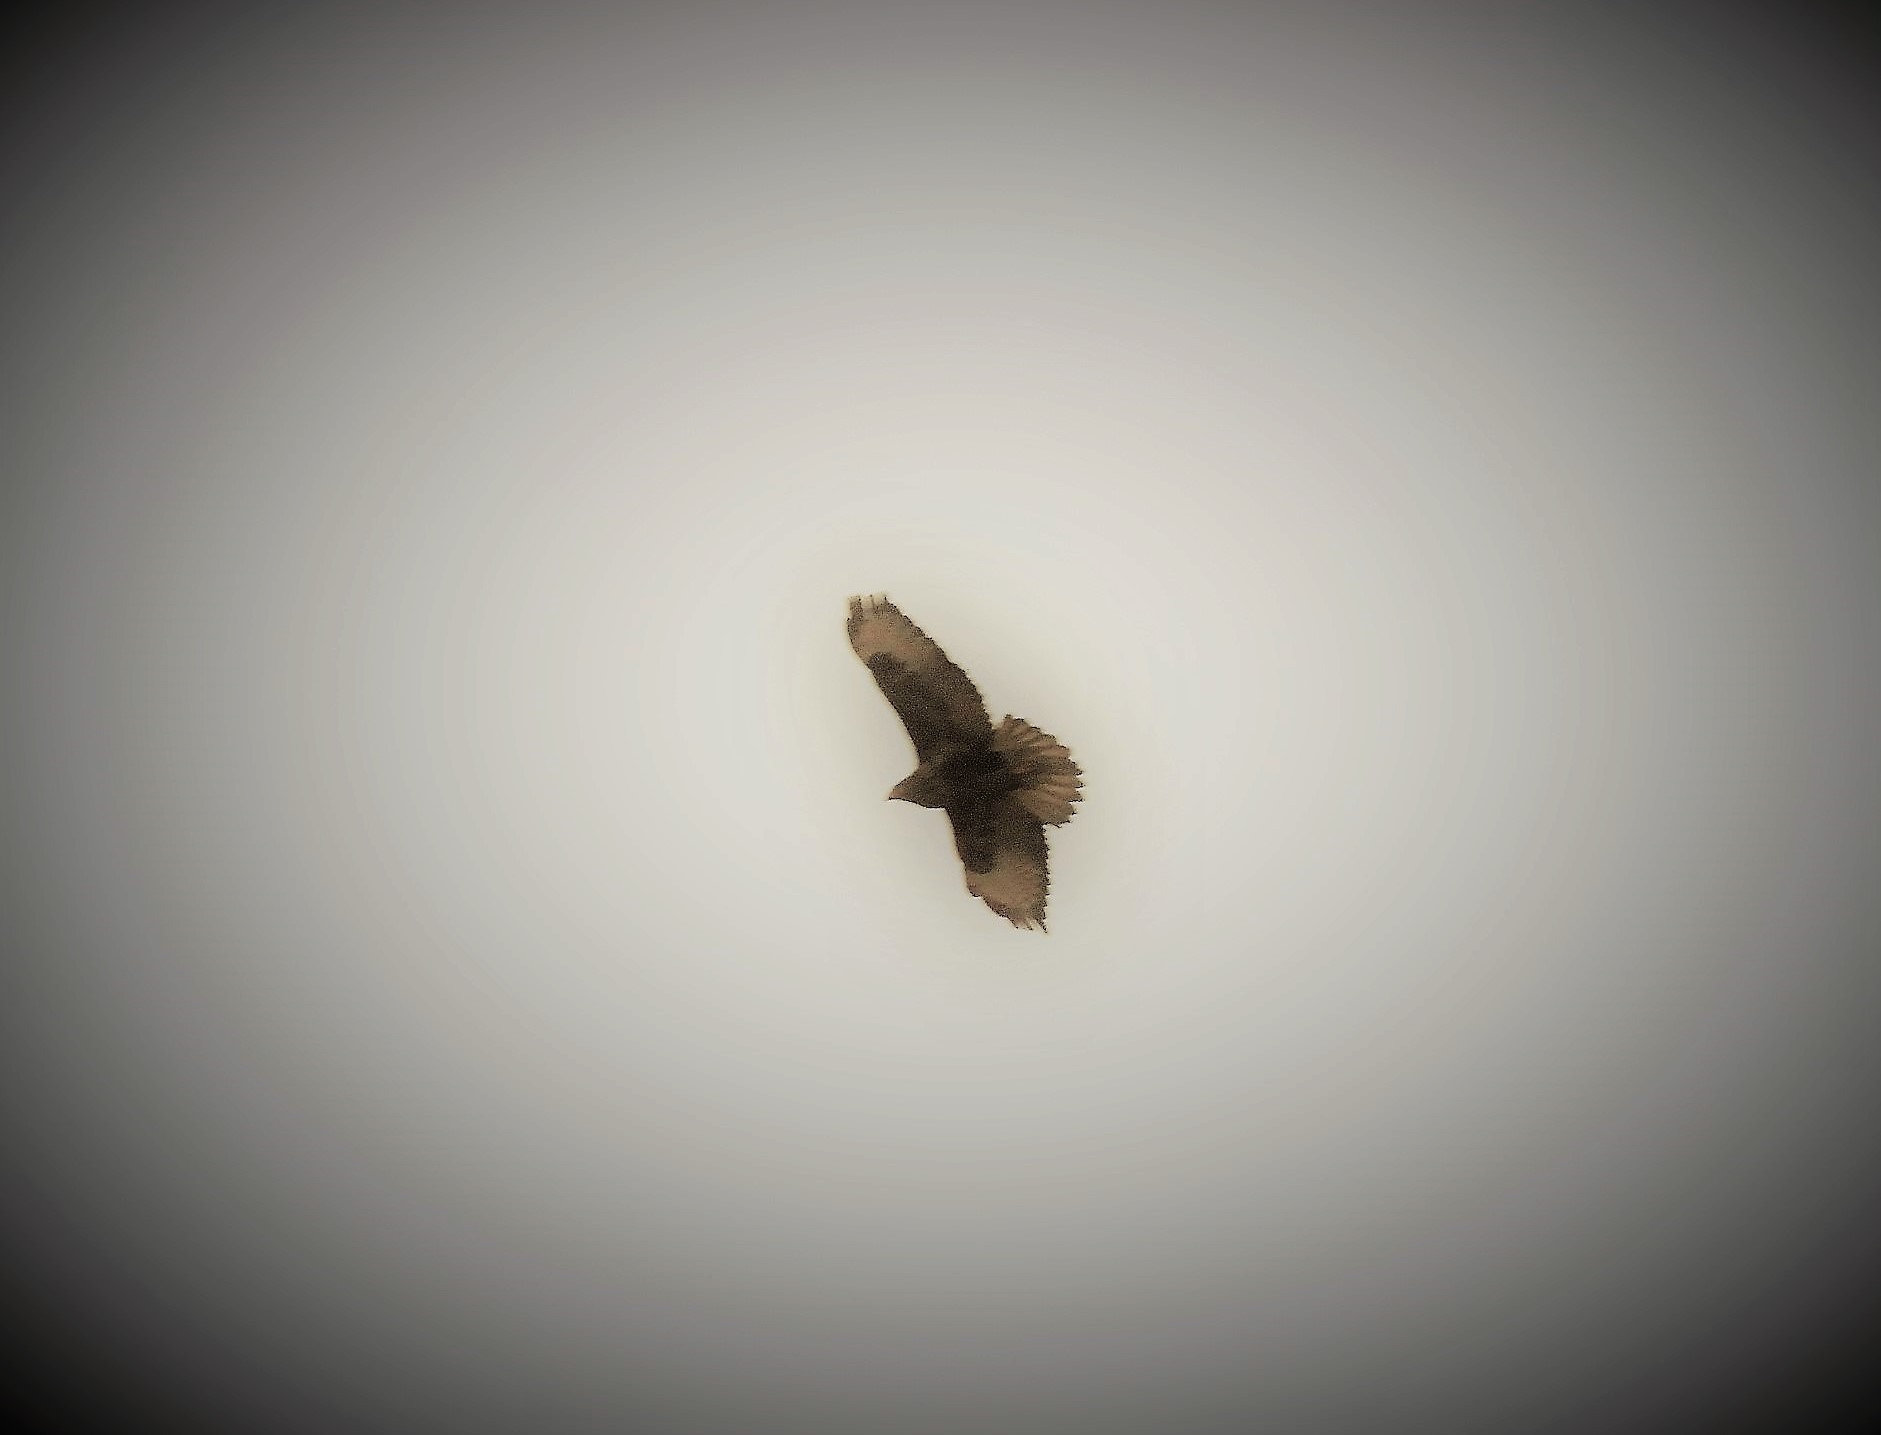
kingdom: Animalia
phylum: Chordata
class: Aves
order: Accipitriformes
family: Accipitridae
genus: Buteo
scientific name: Buteo buteo
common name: Musvåge
